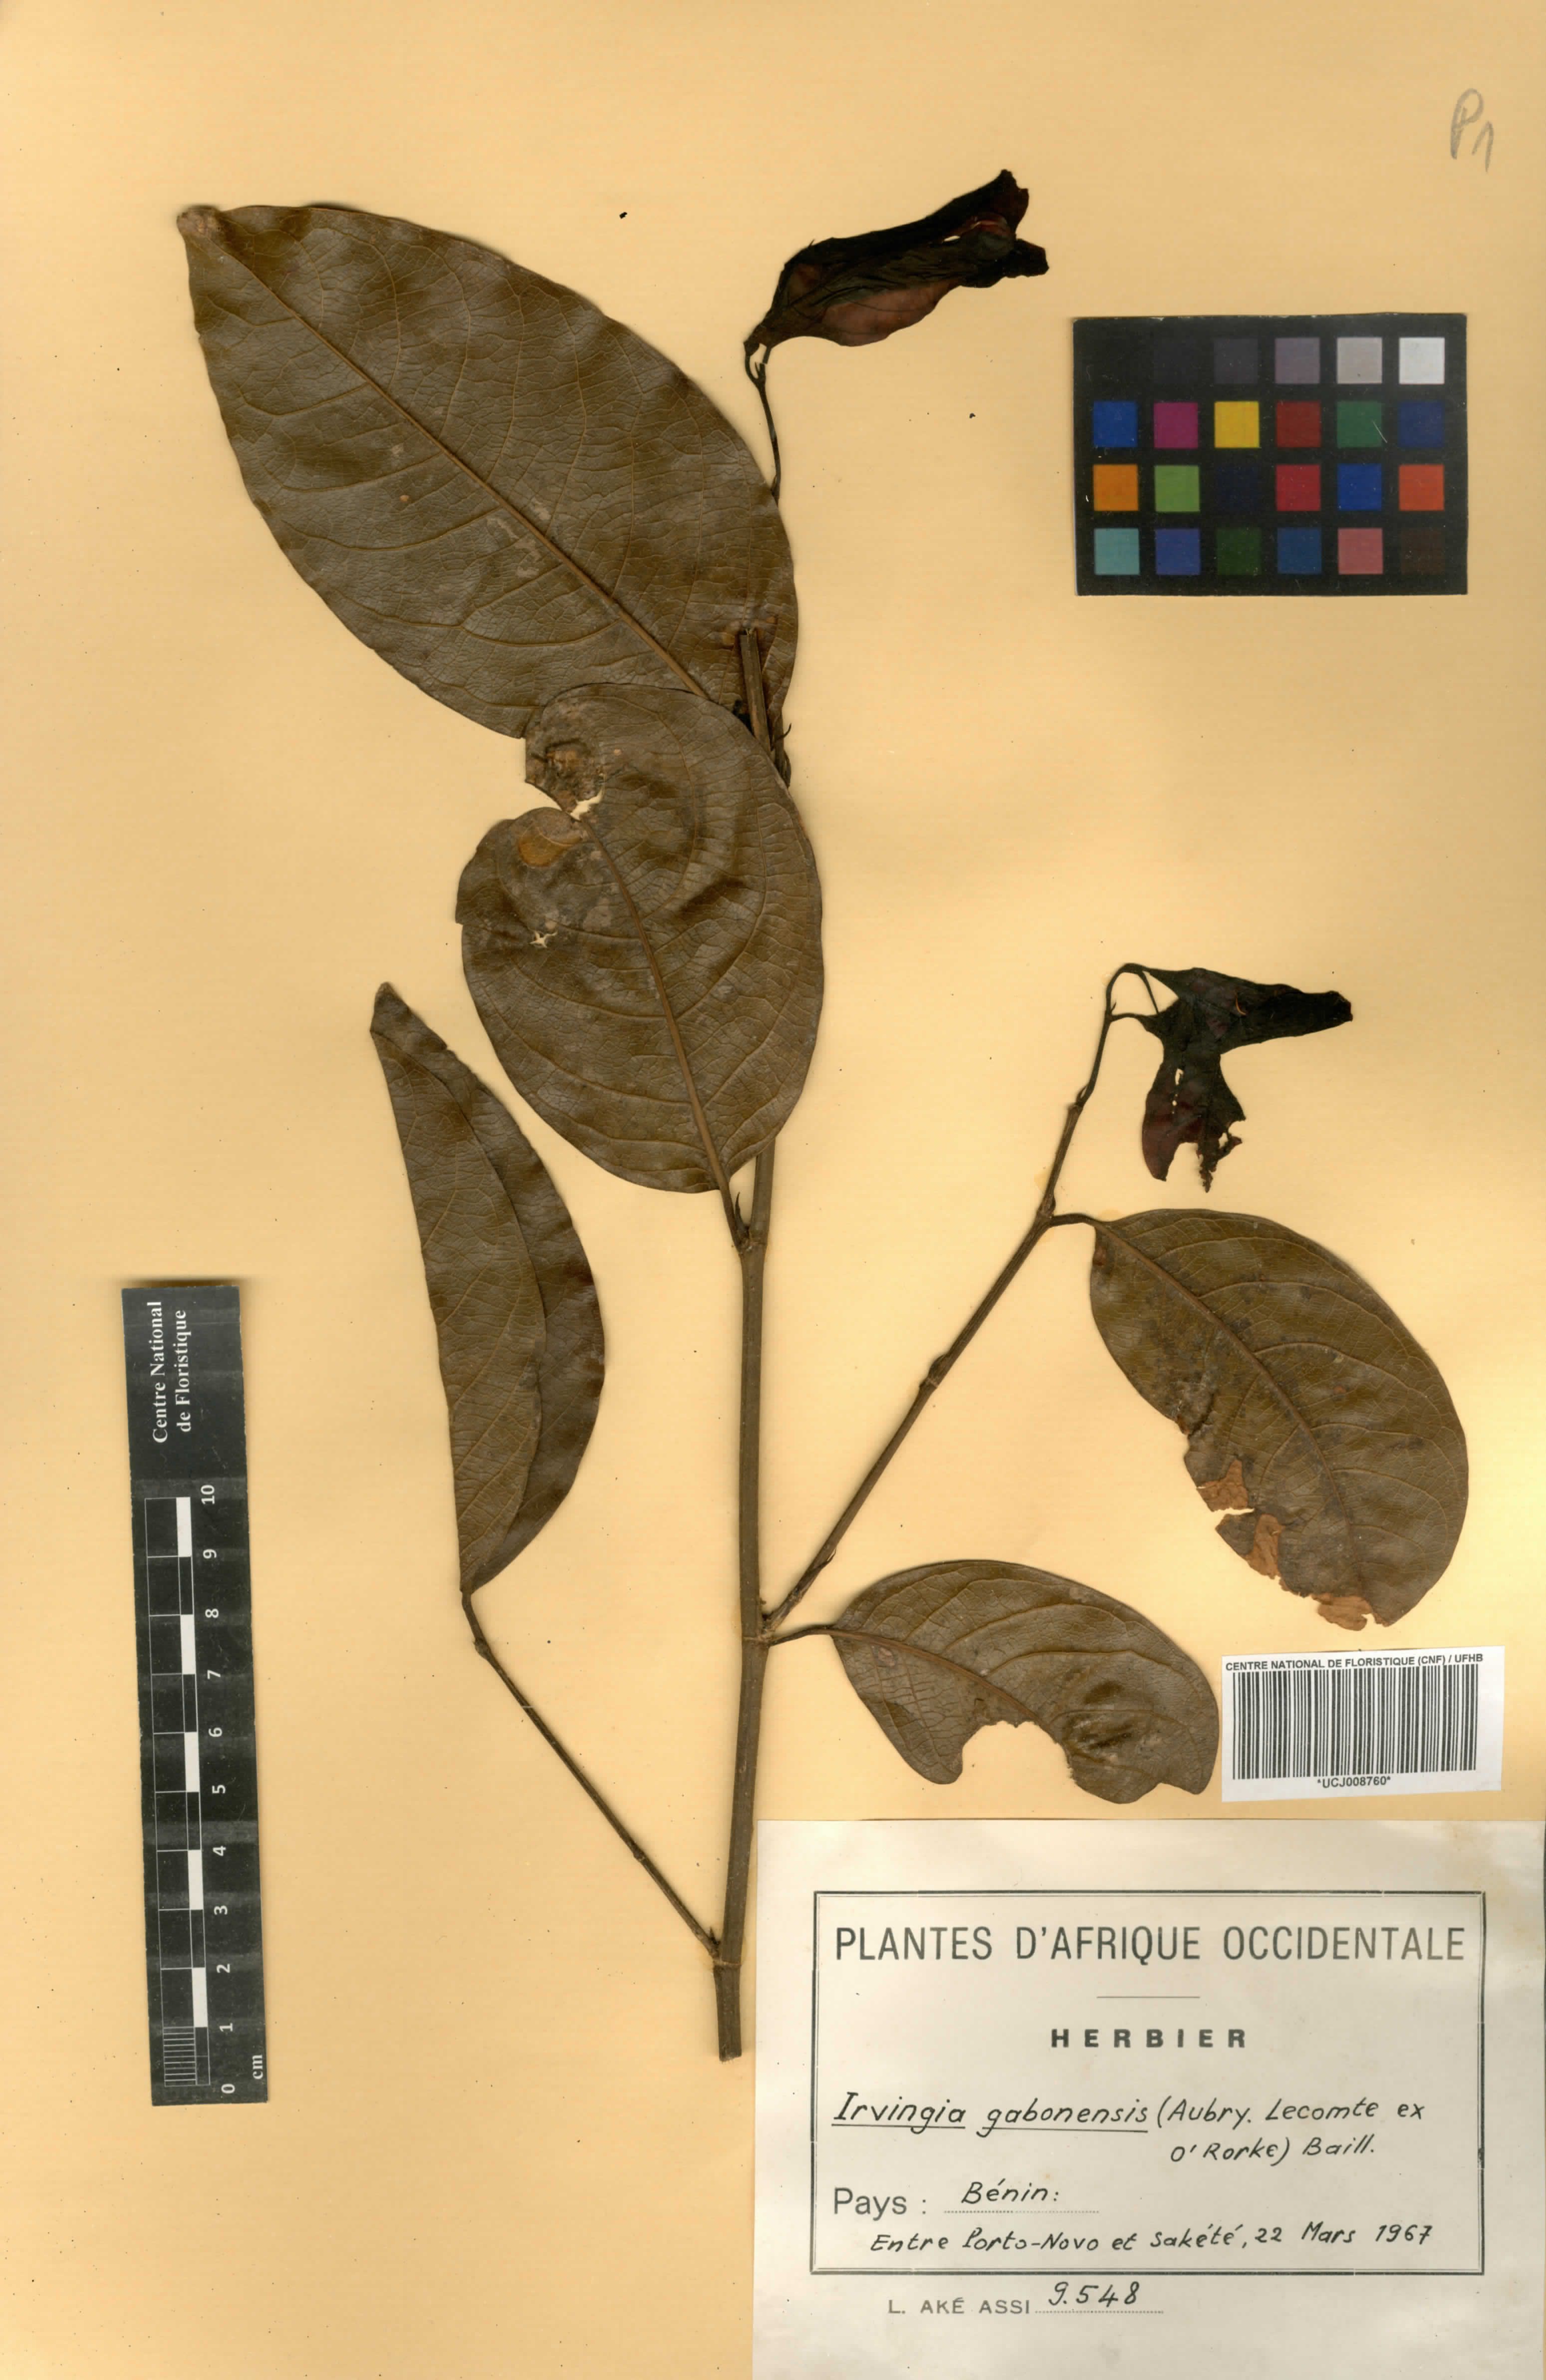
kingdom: Plantae
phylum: Tracheophyta
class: Magnoliopsida
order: Malpighiales
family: Irvingiaceae
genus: Irvingia
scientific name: Irvingia gabonensis
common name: Rainy season bush-mango
